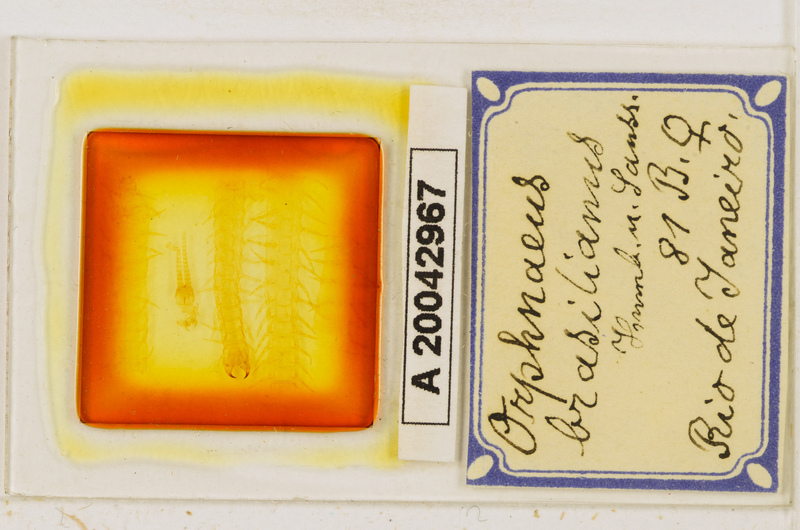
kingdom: Animalia
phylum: Arthropoda
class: Chilopoda
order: Geophilomorpha
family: Oryidae
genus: Orphnaeus
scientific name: Orphnaeus brasilianus
